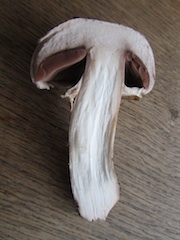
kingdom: Fungi
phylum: Basidiomycota
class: Agaricomycetes
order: Agaricales
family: Agaricaceae
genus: Agaricus
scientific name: Agaricus subperonatus
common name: knippe-champignon
